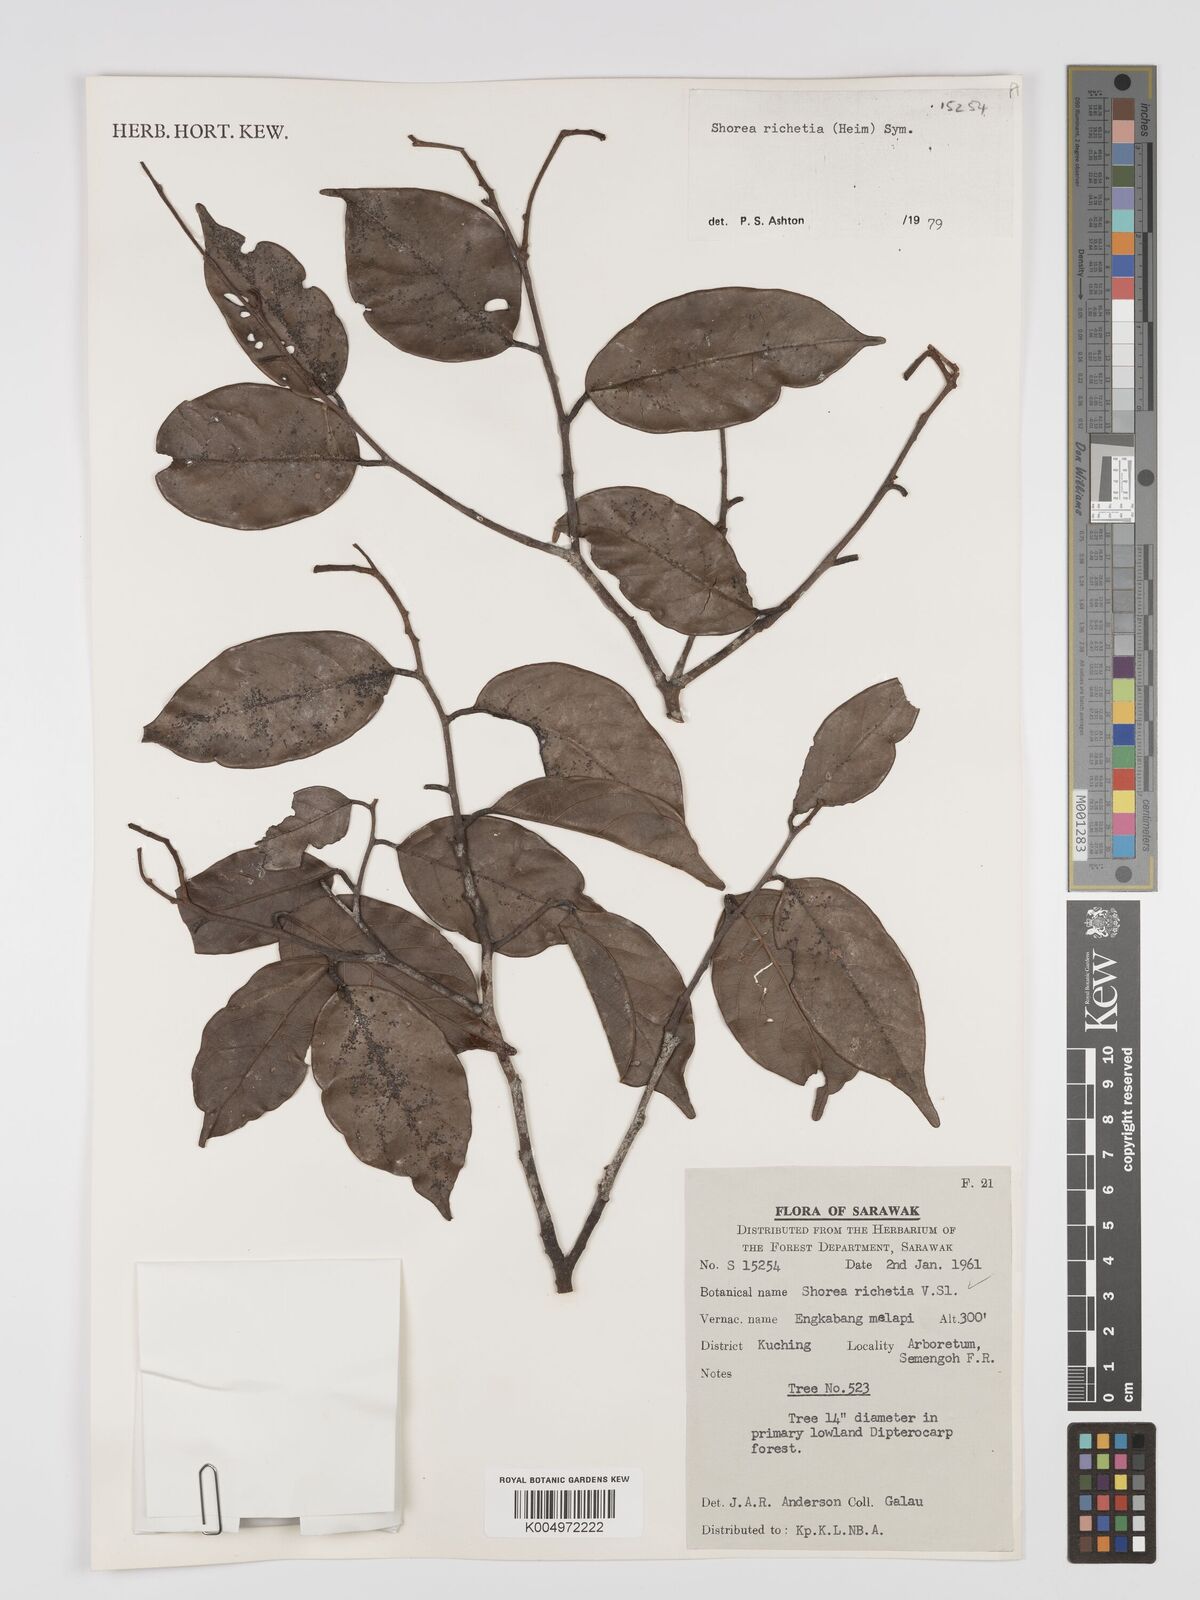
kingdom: Plantae
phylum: Tracheophyta
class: Magnoliopsida
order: Malvales
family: Dipterocarpaceae
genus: Shorea
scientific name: Shorea richetia
